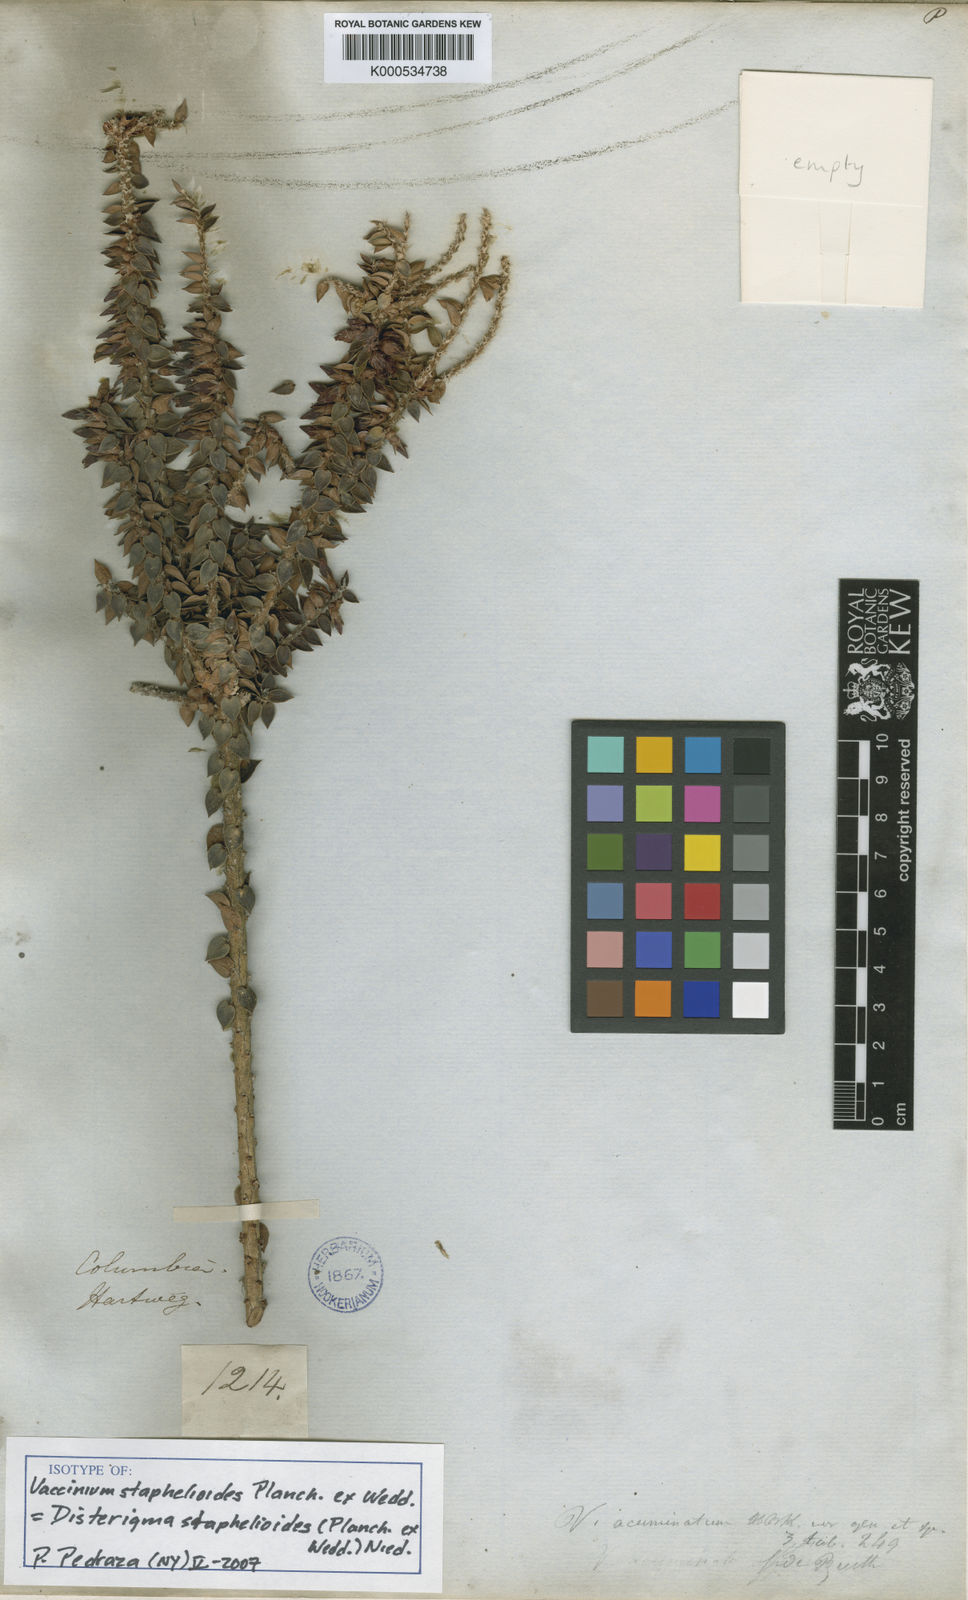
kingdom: Plantae
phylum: Tracheophyta
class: Magnoliopsida
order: Ericales
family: Ericaceae
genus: Disterigma
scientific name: Disterigma staphelioides
